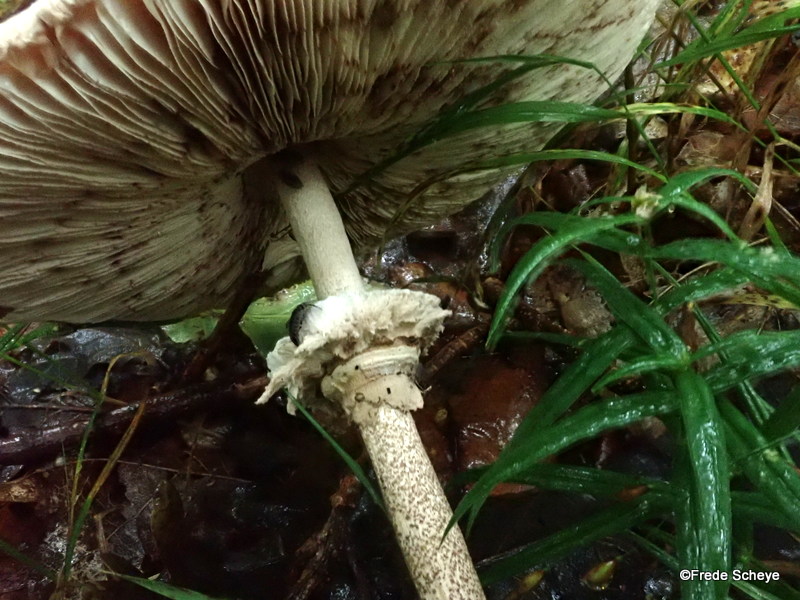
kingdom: Fungi
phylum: Basidiomycota
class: Agaricomycetes
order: Agaricales
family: Agaricaceae
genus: Macrolepiota
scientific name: Macrolepiota procera
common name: stor kæmpeparasolhat
